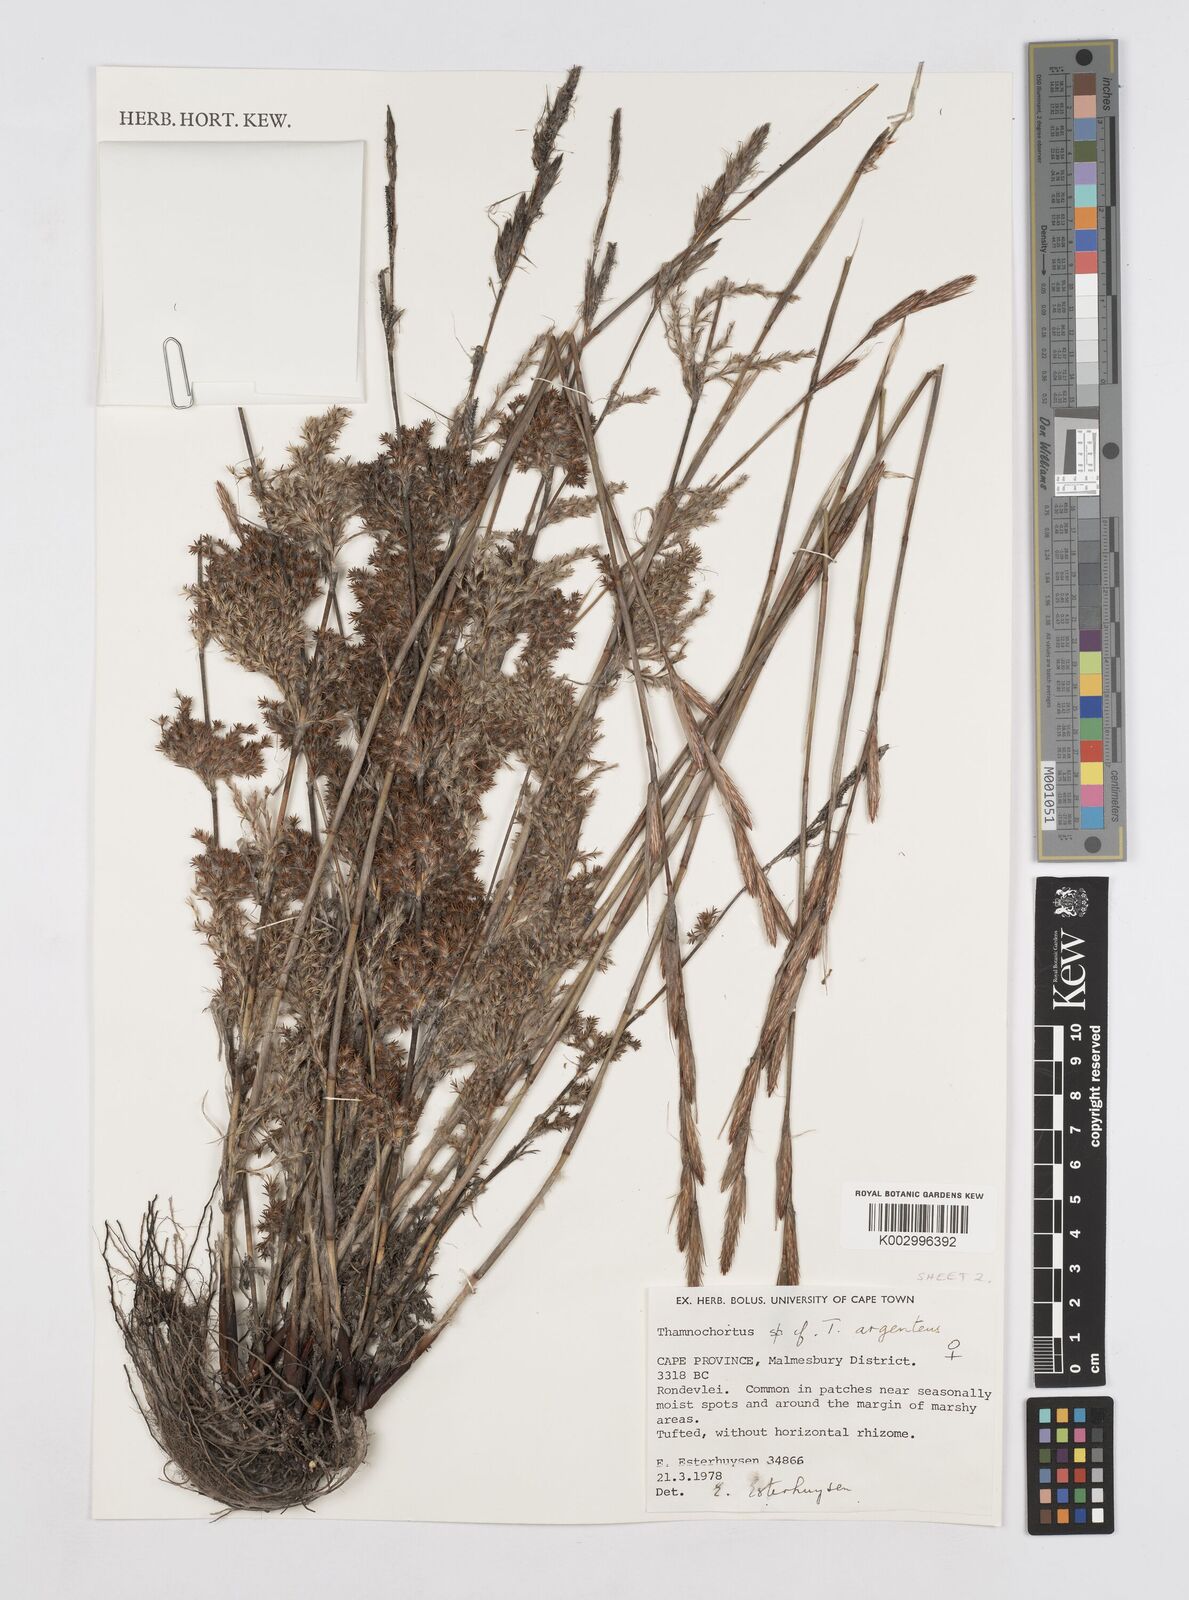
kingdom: Plantae
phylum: Tracheophyta
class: Liliopsida
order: Poales
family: Restionaceae
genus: Hypodiscus
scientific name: Hypodiscus argenteus
